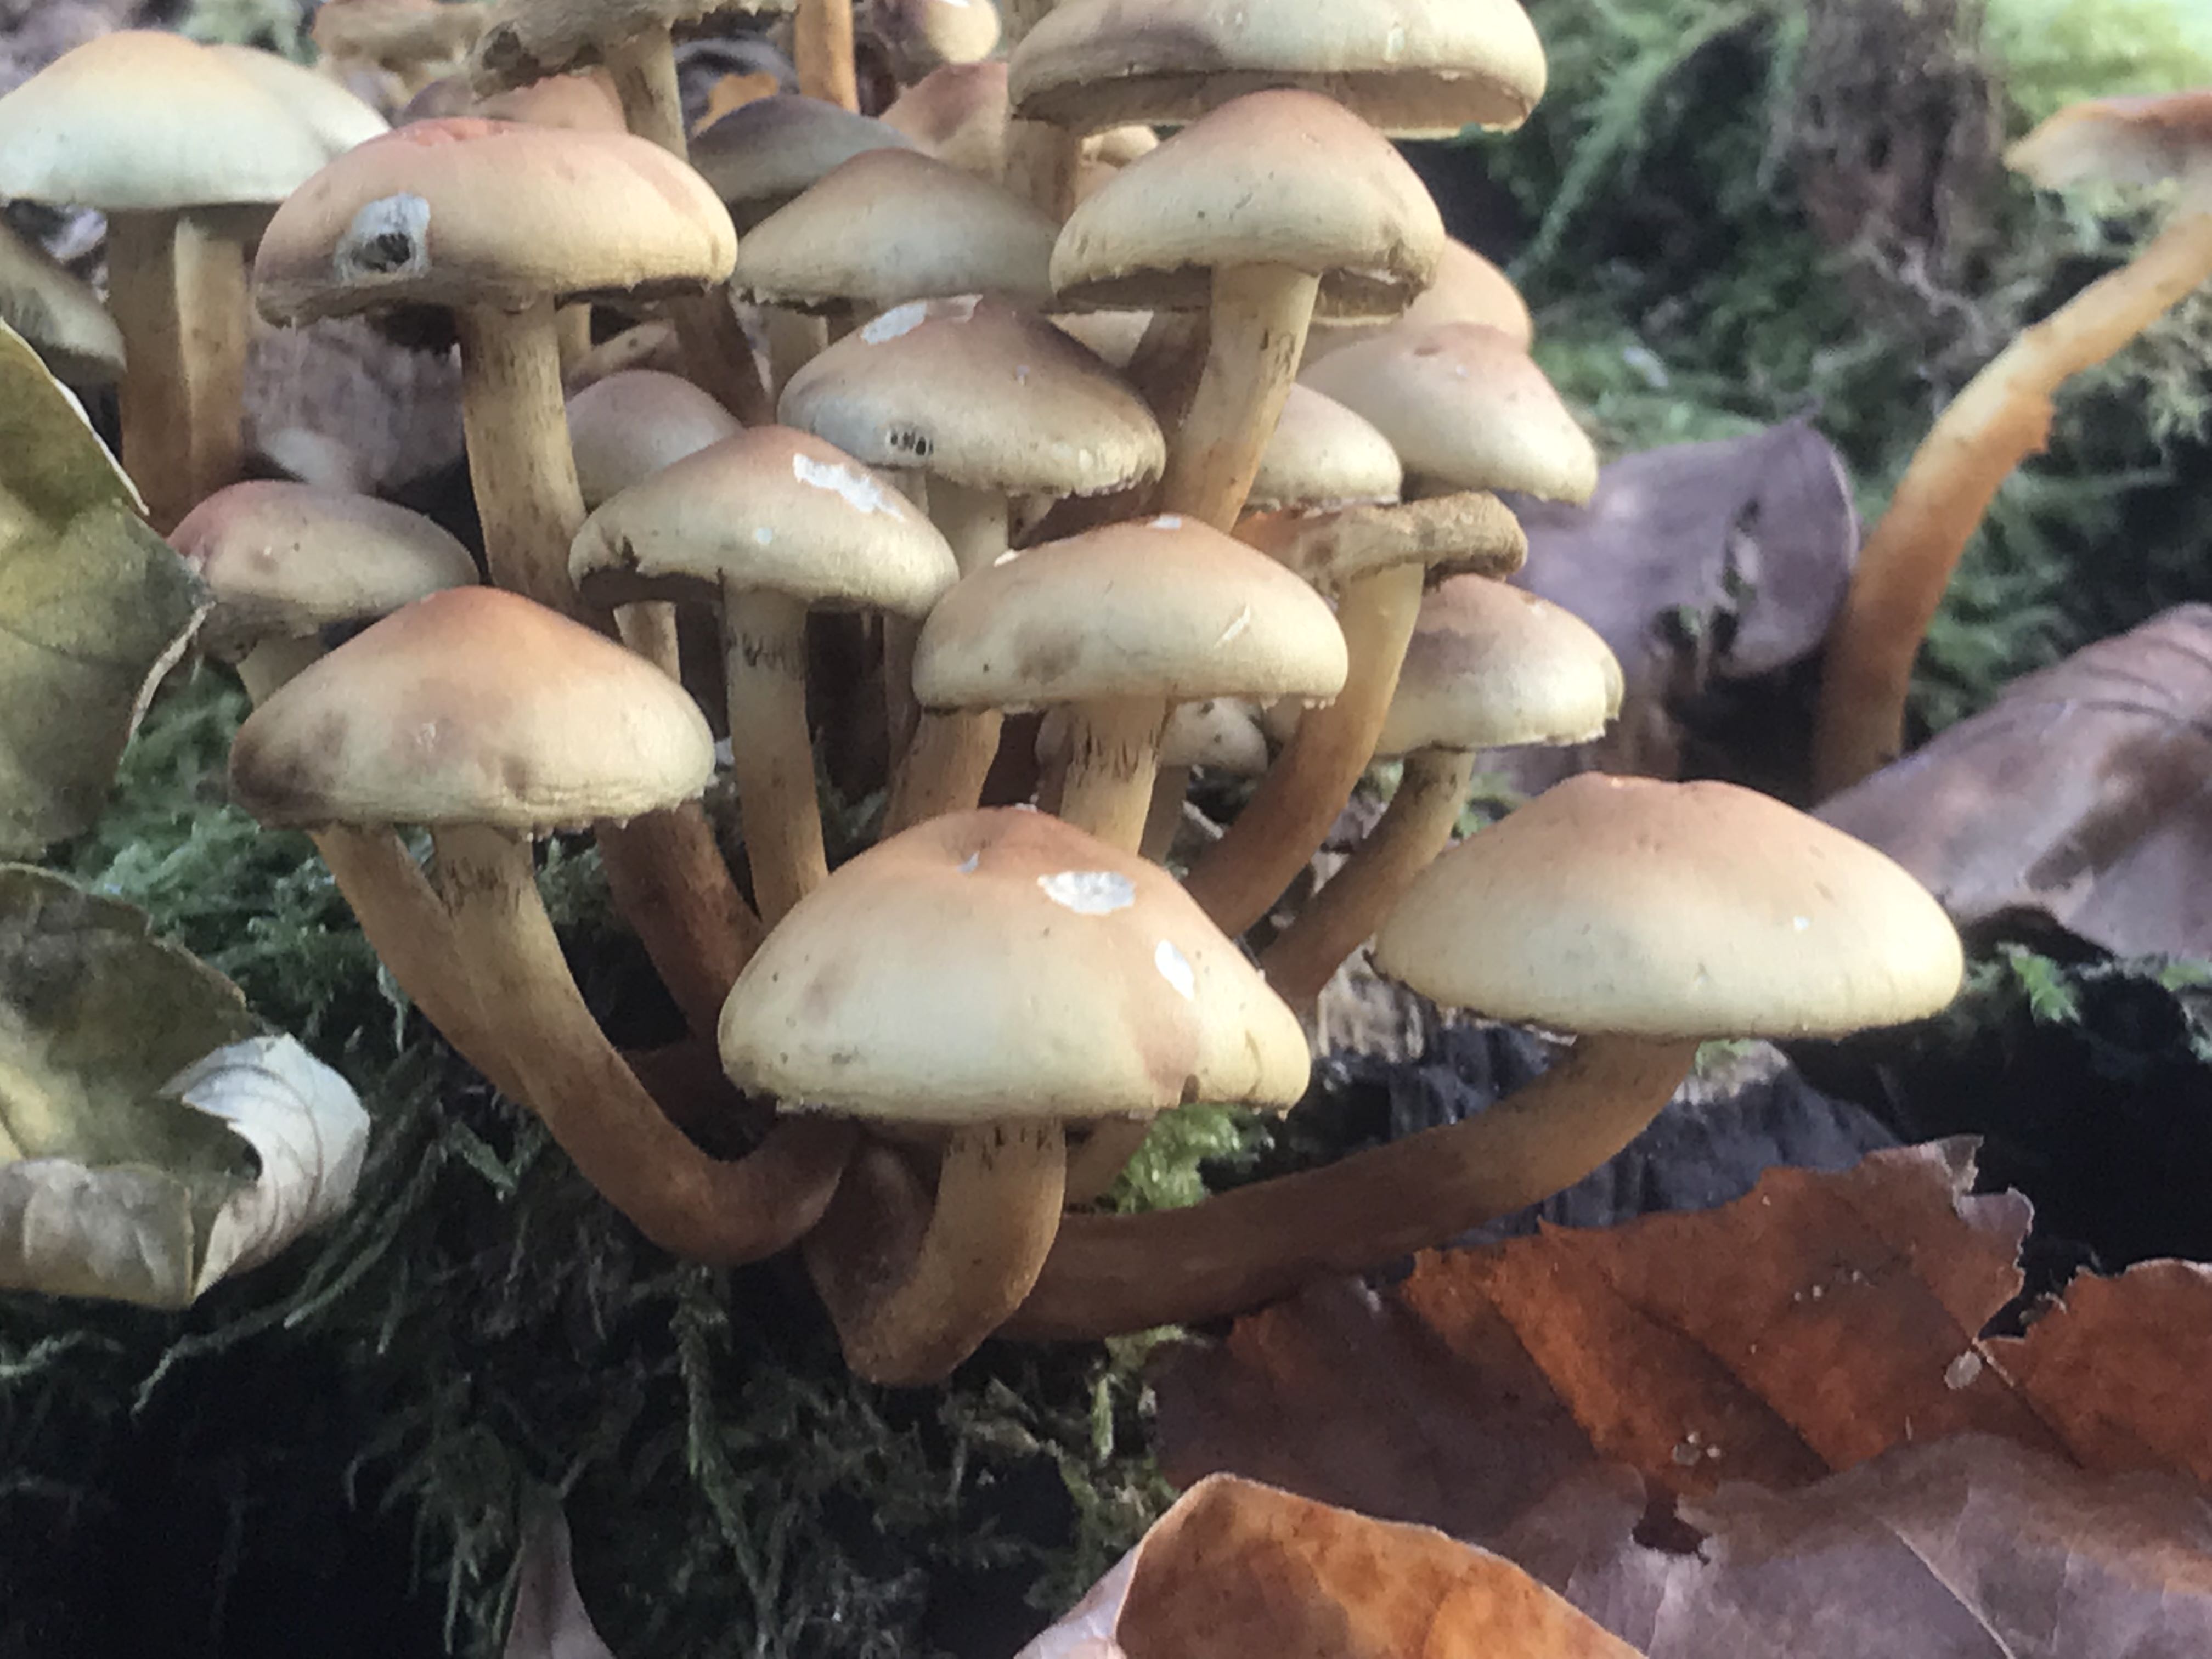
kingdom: Fungi
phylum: Basidiomycota
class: Agaricomycetes
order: Agaricales
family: Strophariaceae
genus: Hypholoma
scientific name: Hypholoma
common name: svovlhat
